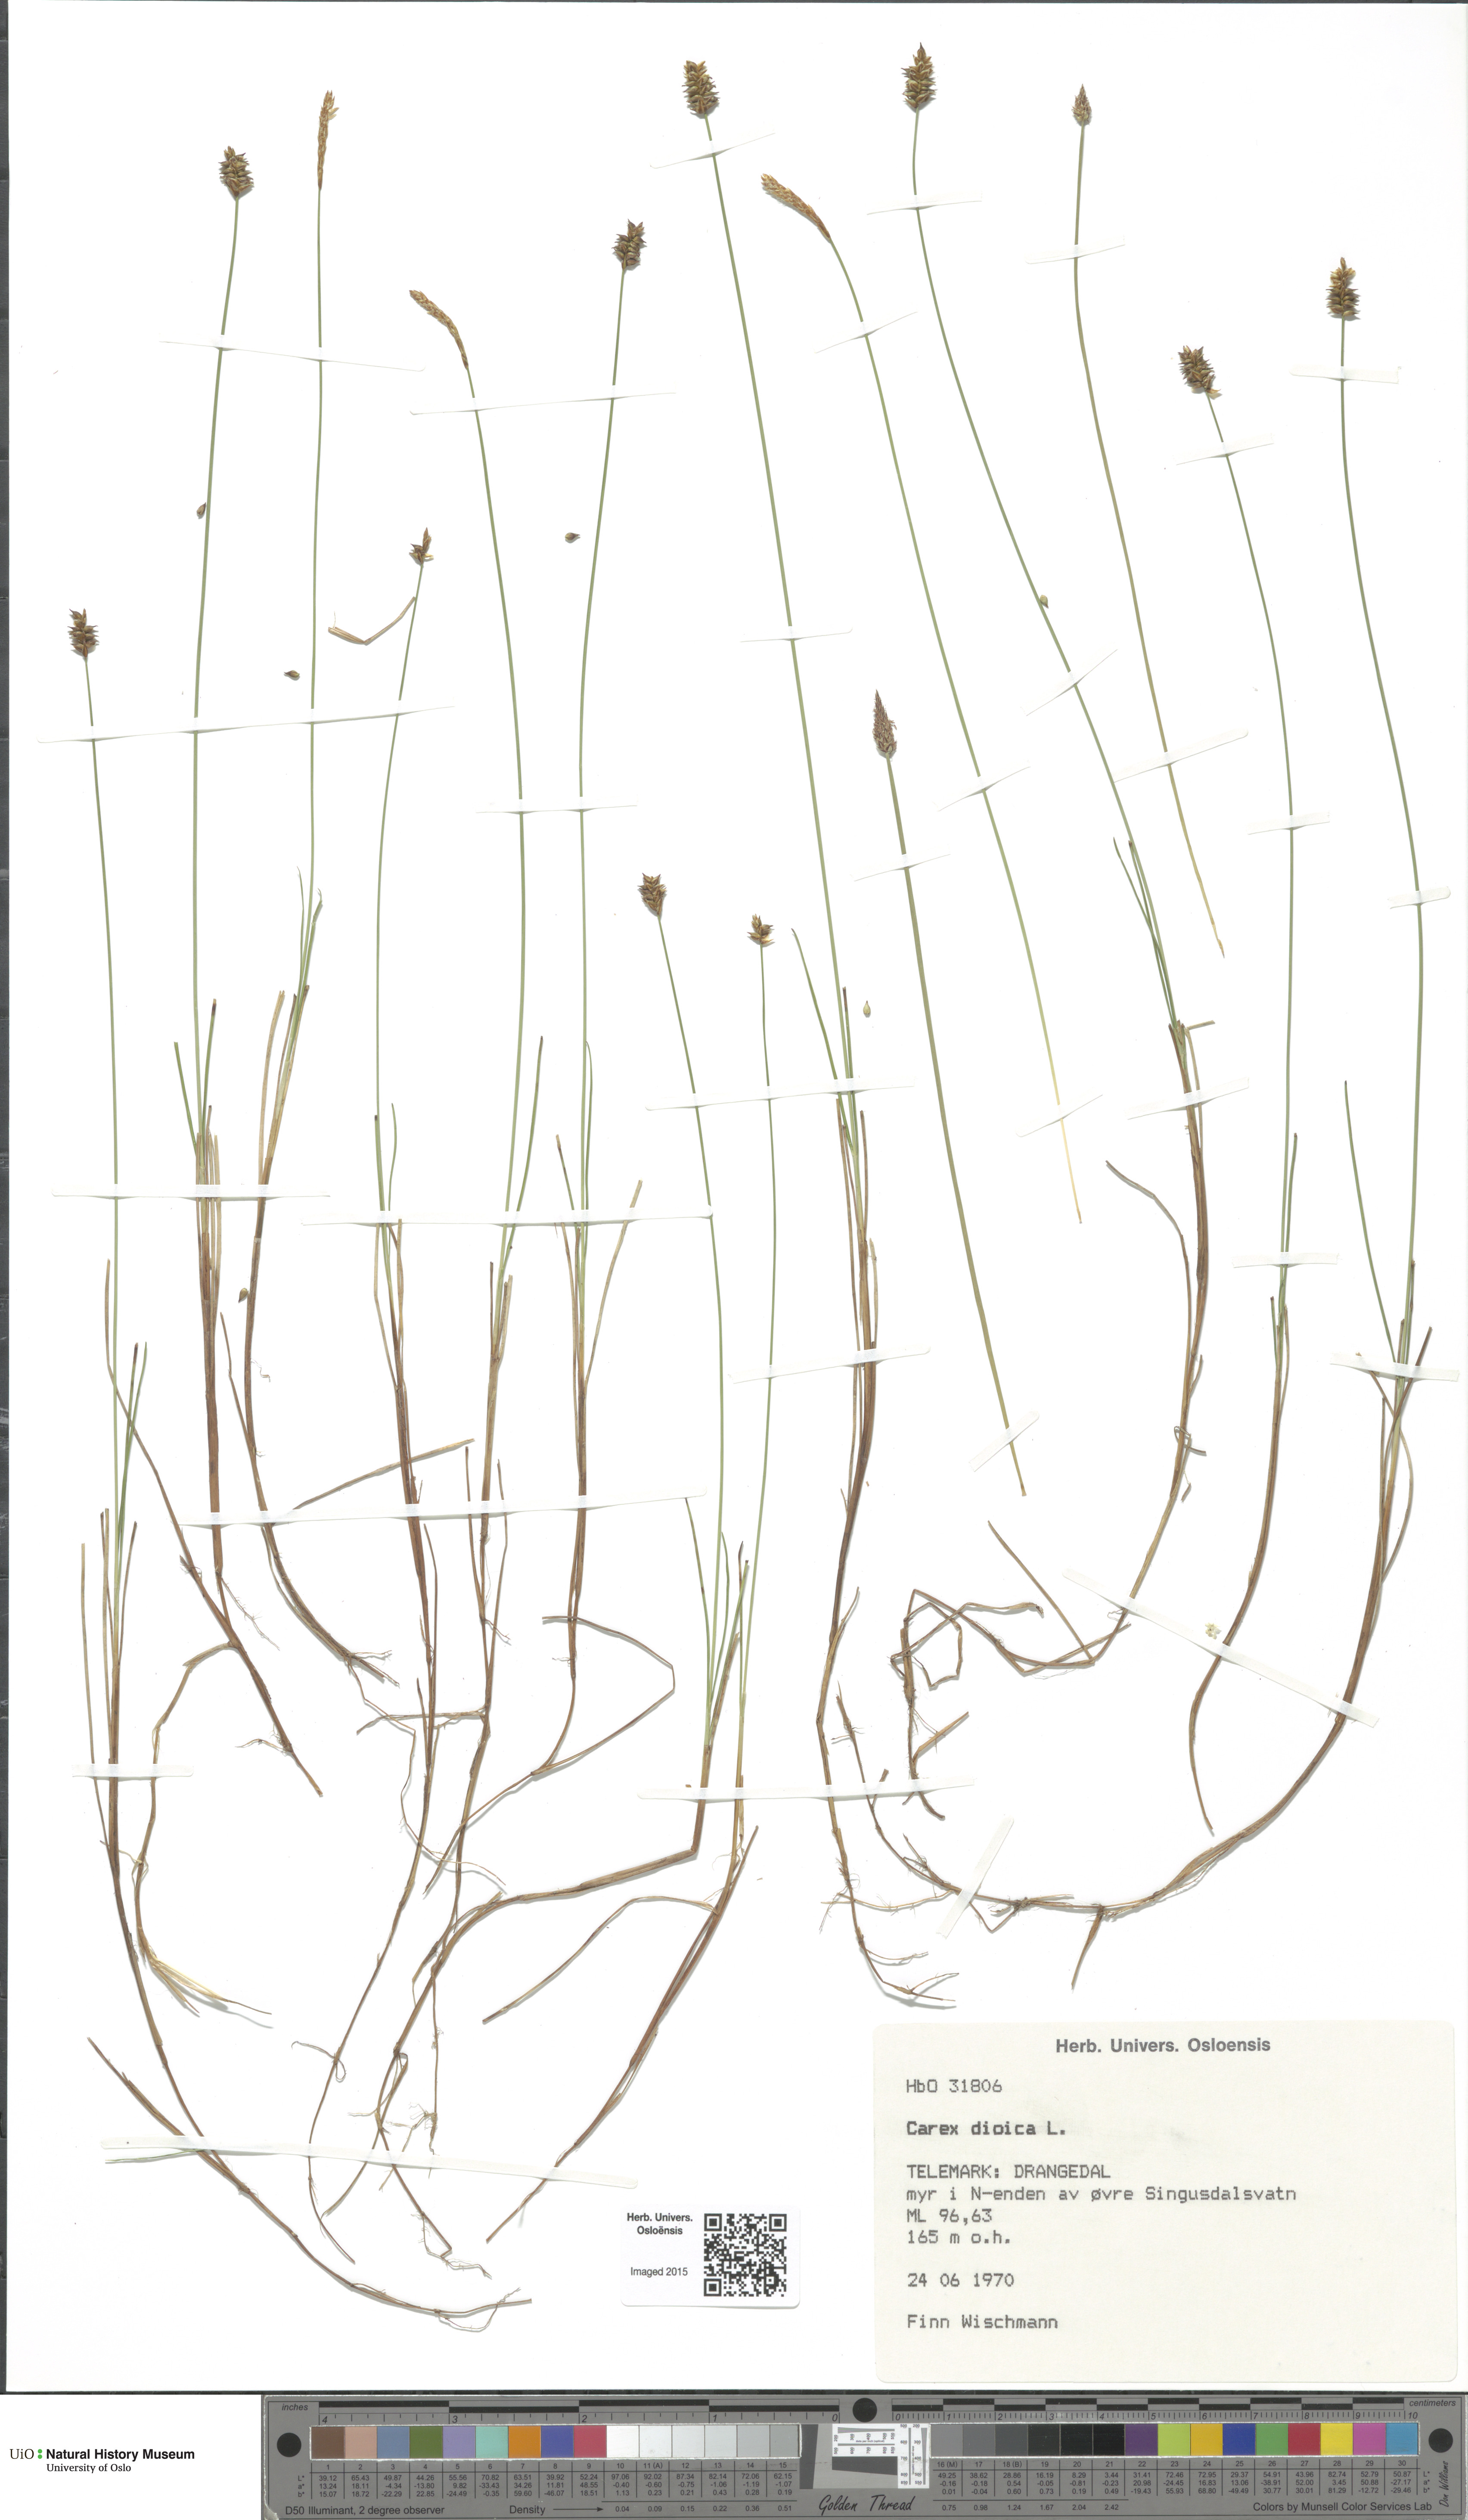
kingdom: Plantae
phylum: Tracheophyta
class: Liliopsida
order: Poales
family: Cyperaceae
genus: Carex
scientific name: Carex dioica
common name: Dioecious sedge
